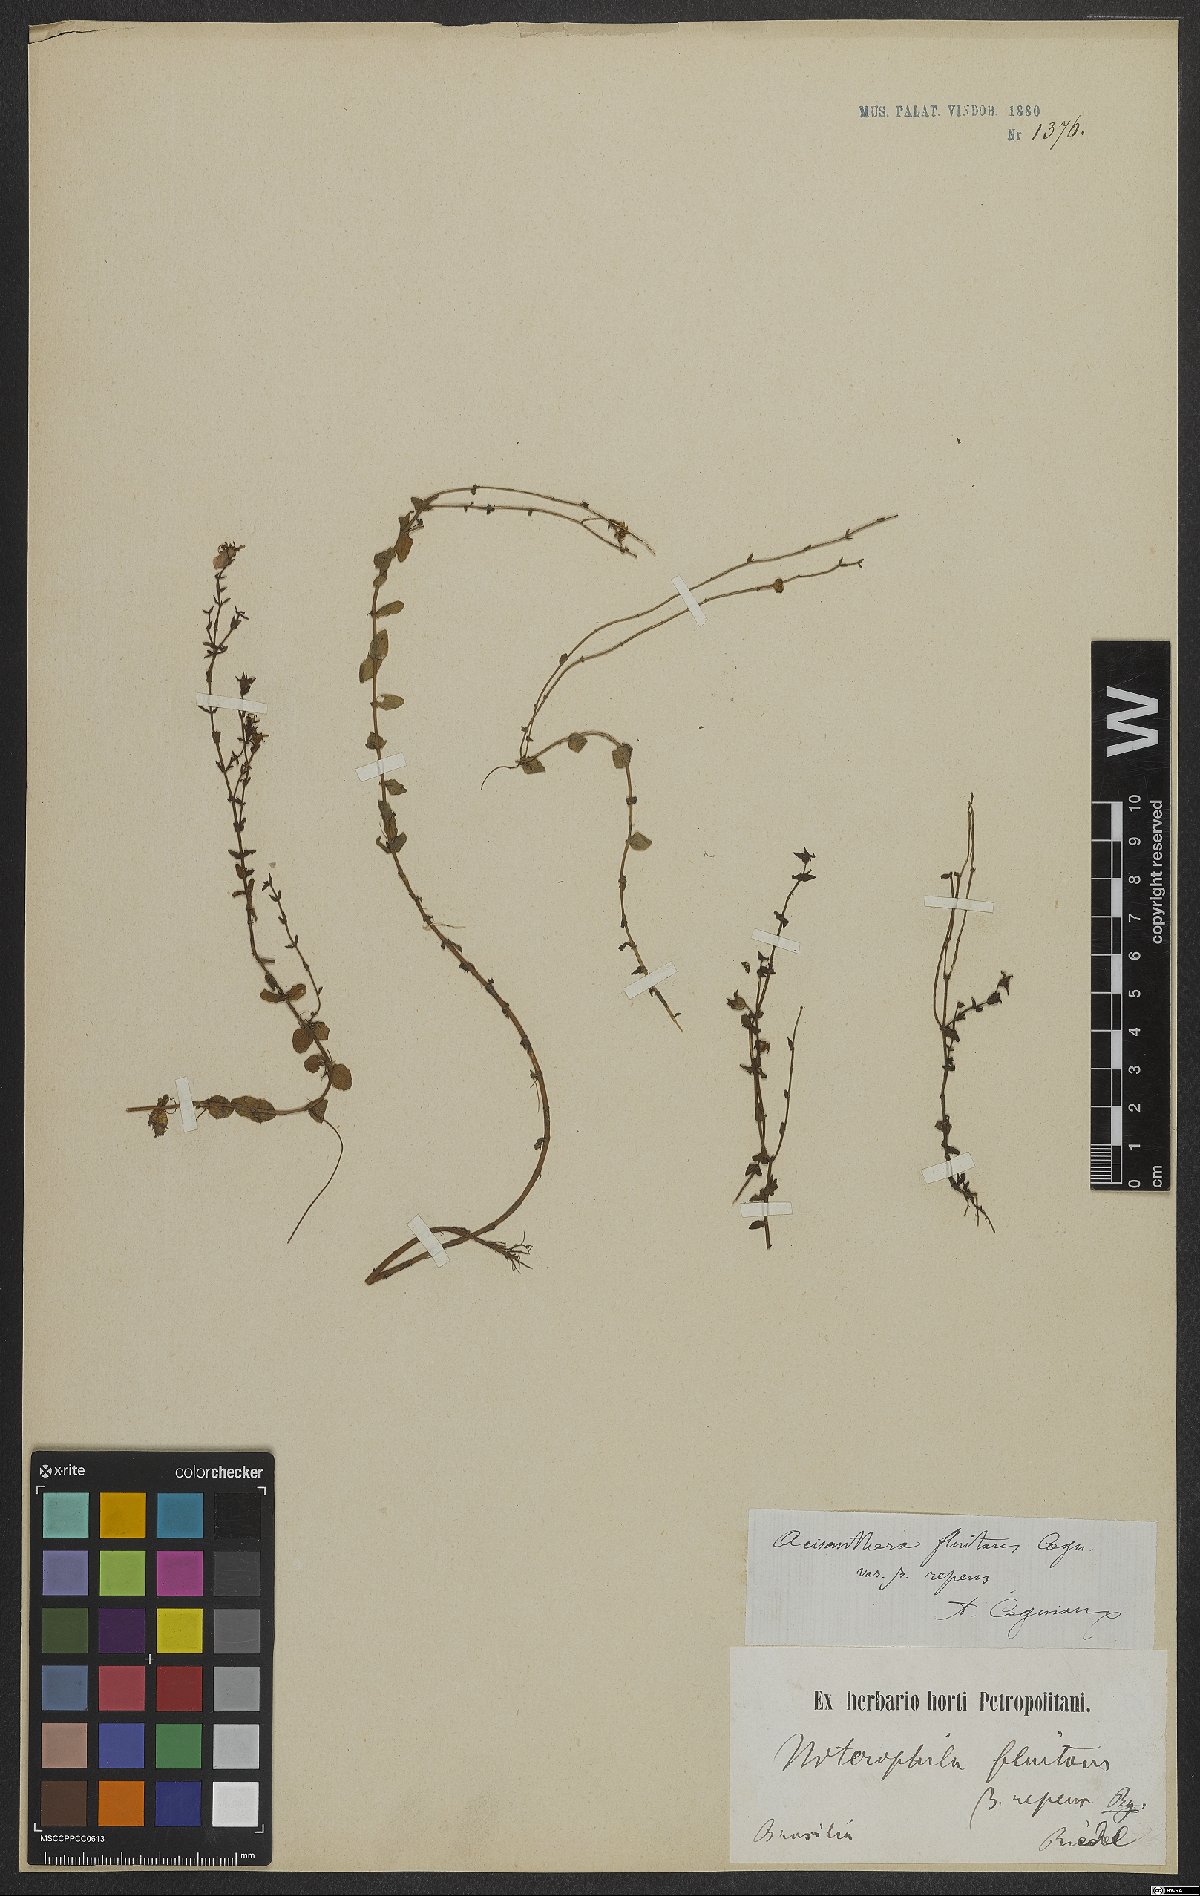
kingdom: Plantae
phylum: Tracheophyta
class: Magnoliopsida
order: Myrtales
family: Melastomataceae
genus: Noterophila
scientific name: Noterophila limnobios
